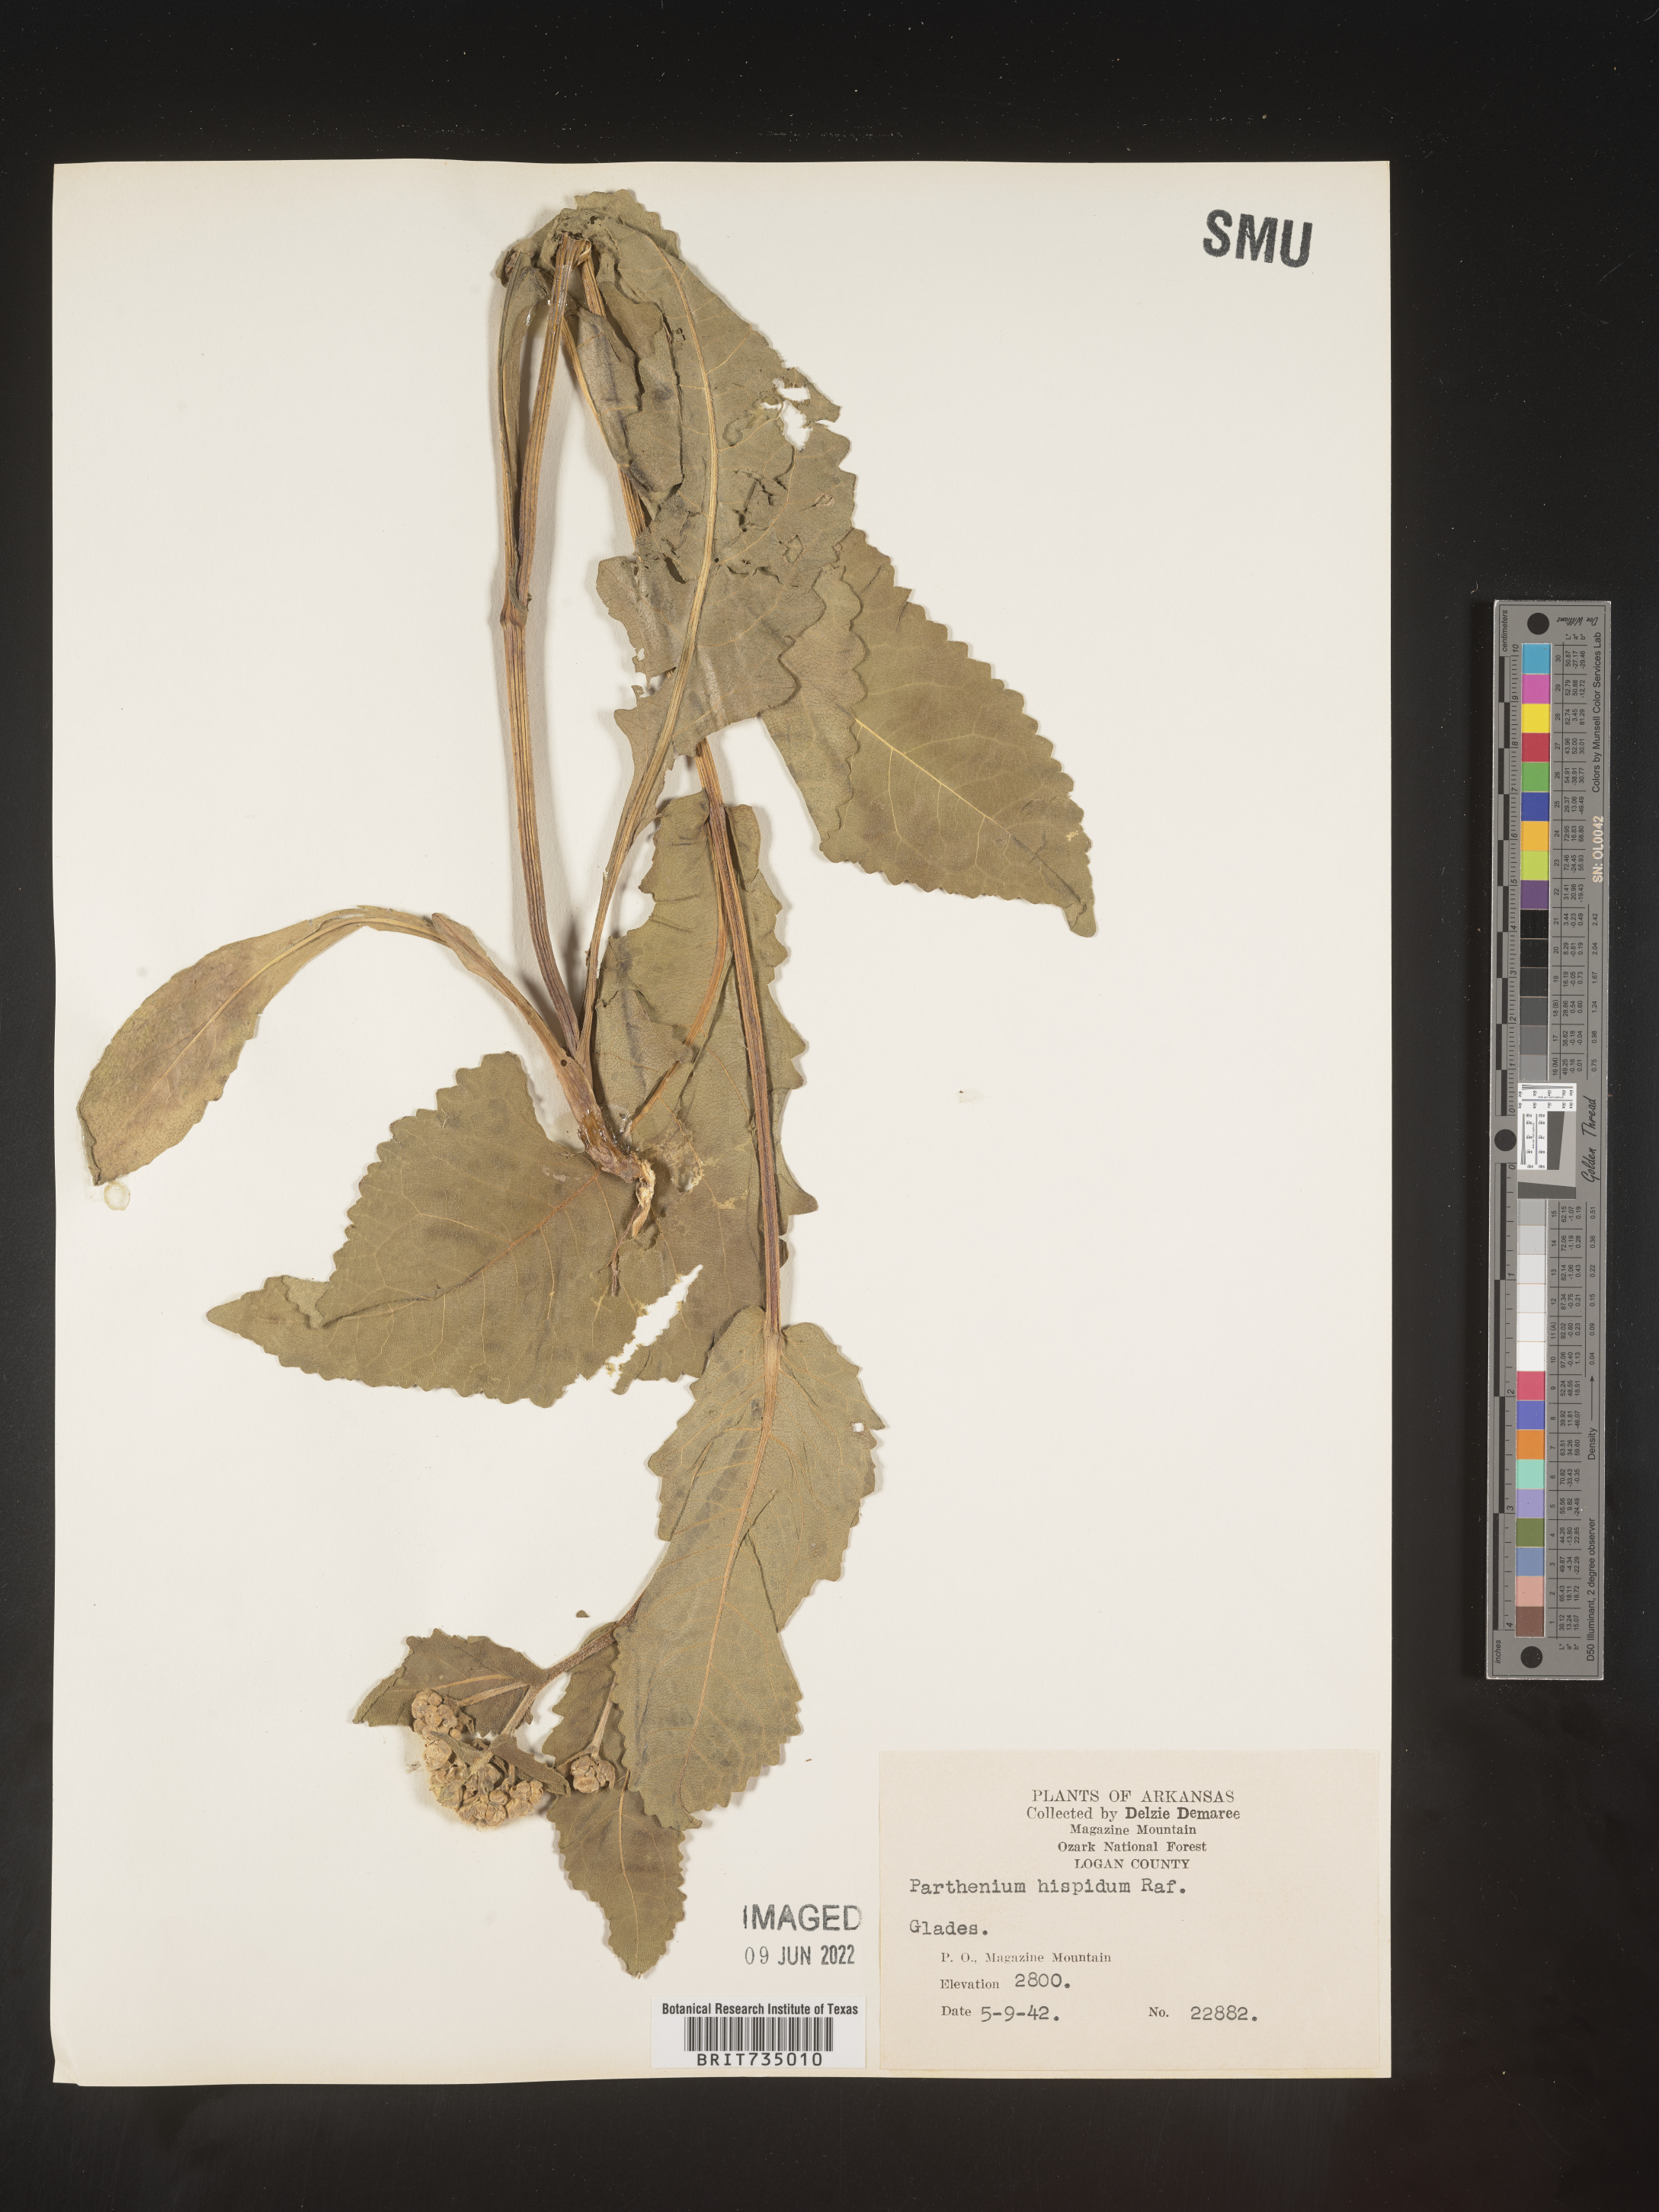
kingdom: Plantae
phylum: Tracheophyta
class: Magnoliopsida
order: Asterales
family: Asteraceae
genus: Parthenium
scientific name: Parthenium hispidum
